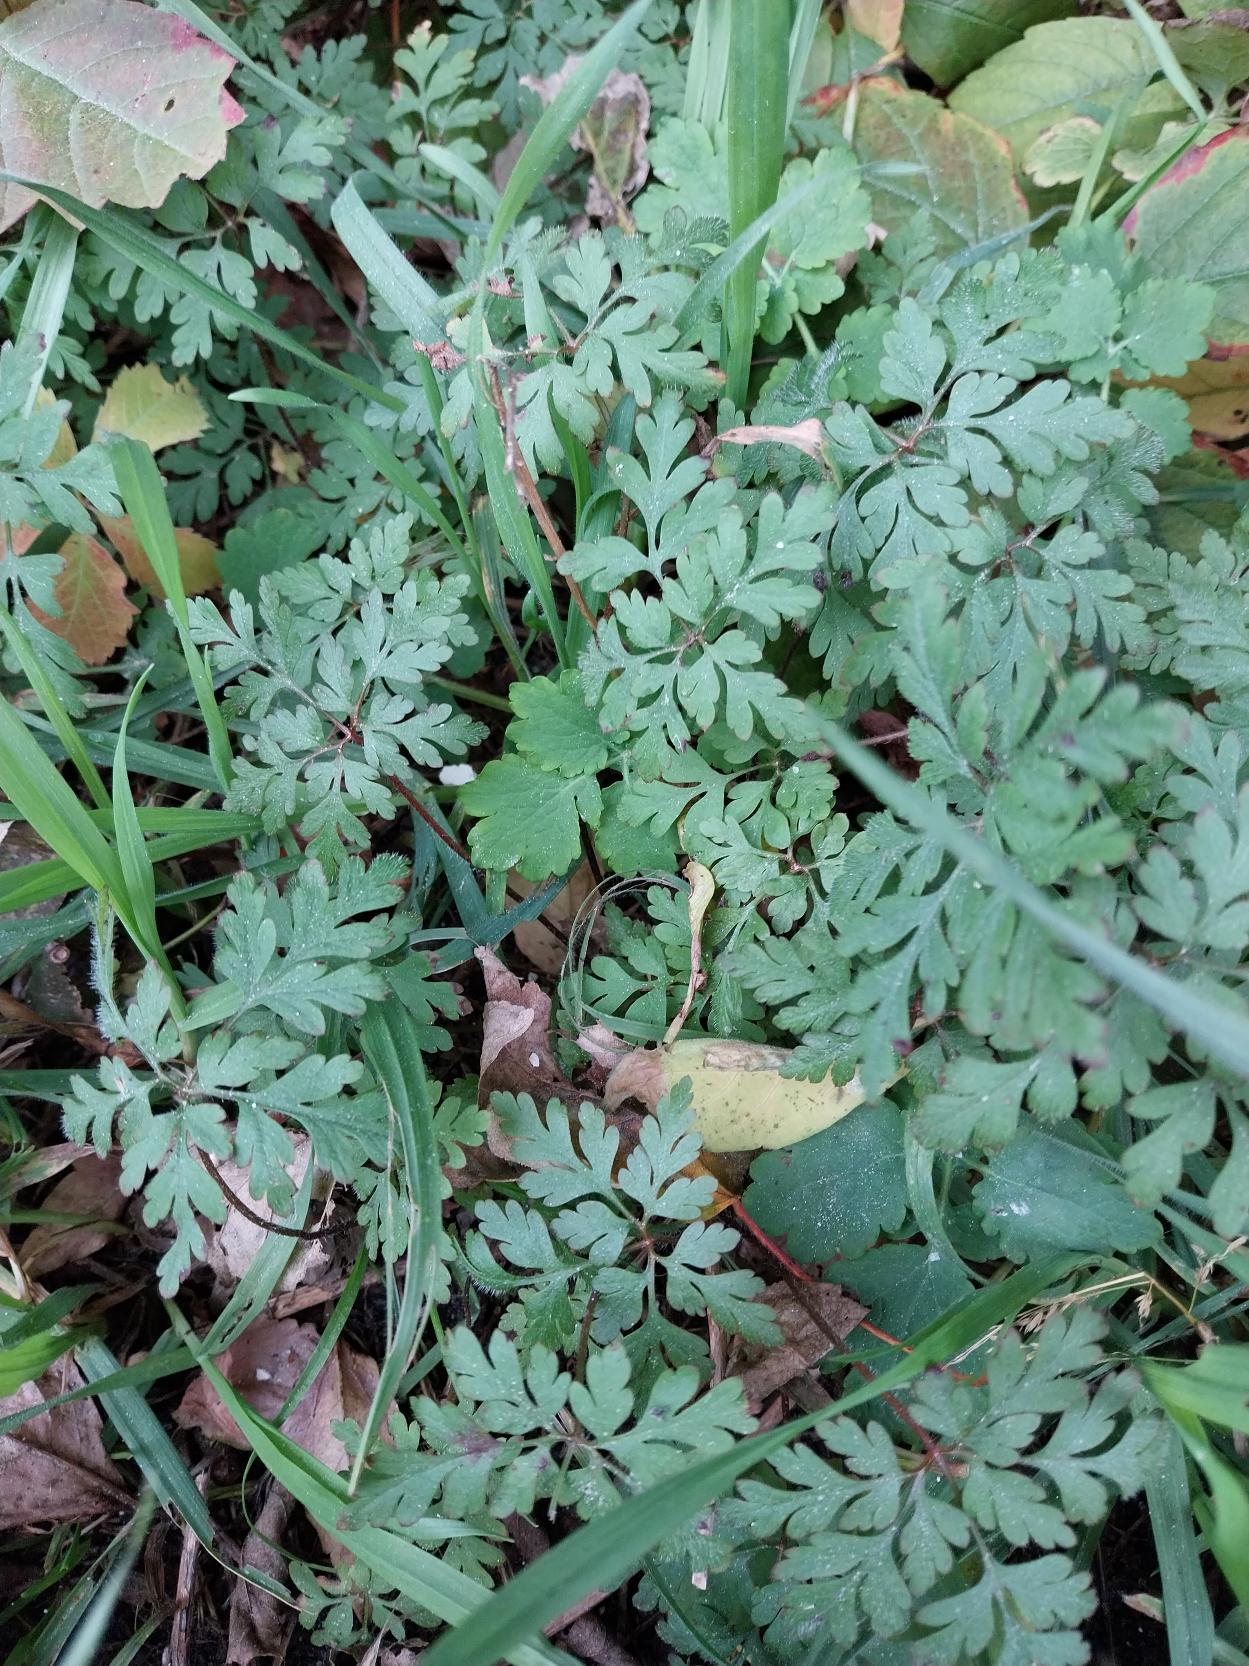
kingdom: Plantae
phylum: Tracheophyta
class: Magnoliopsida
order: Geraniales
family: Geraniaceae
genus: Geranium
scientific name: Geranium robertianum
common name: Stinkende storkenæb
